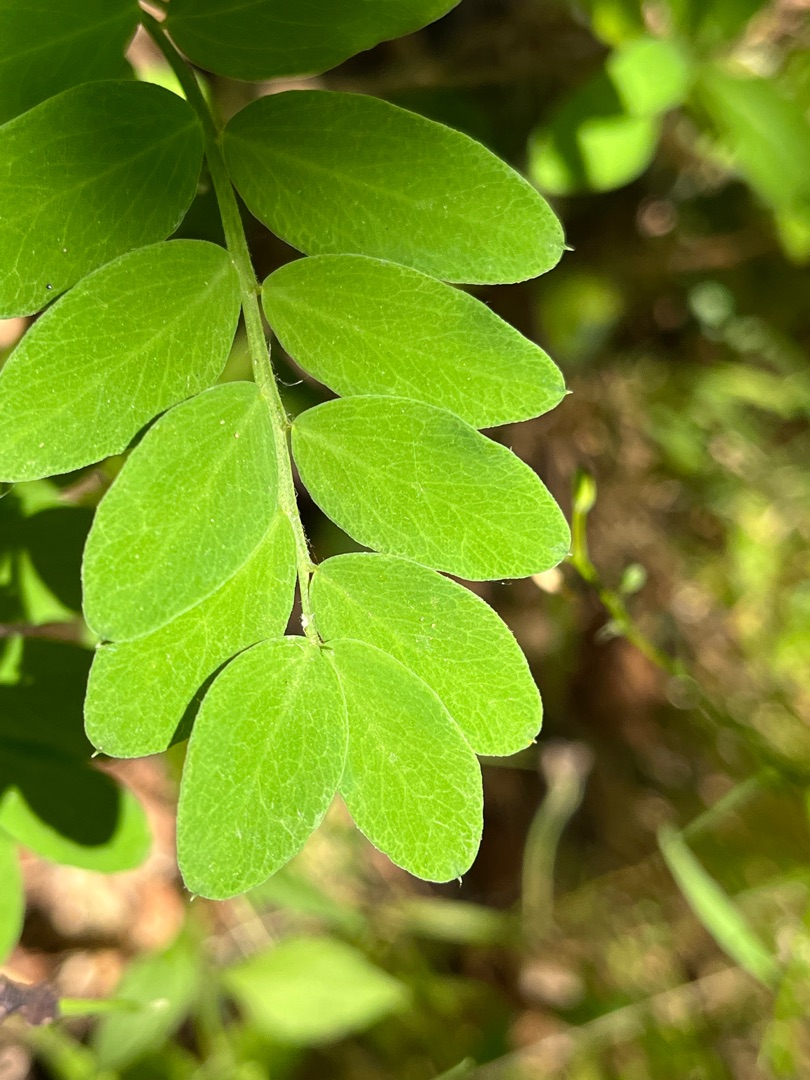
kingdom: Plantae
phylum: Tracheophyta
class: Magnoliopsida
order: Fabales
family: Fabaceae
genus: Lathyrus
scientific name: Lathyrus niger
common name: Sort fladbælg
